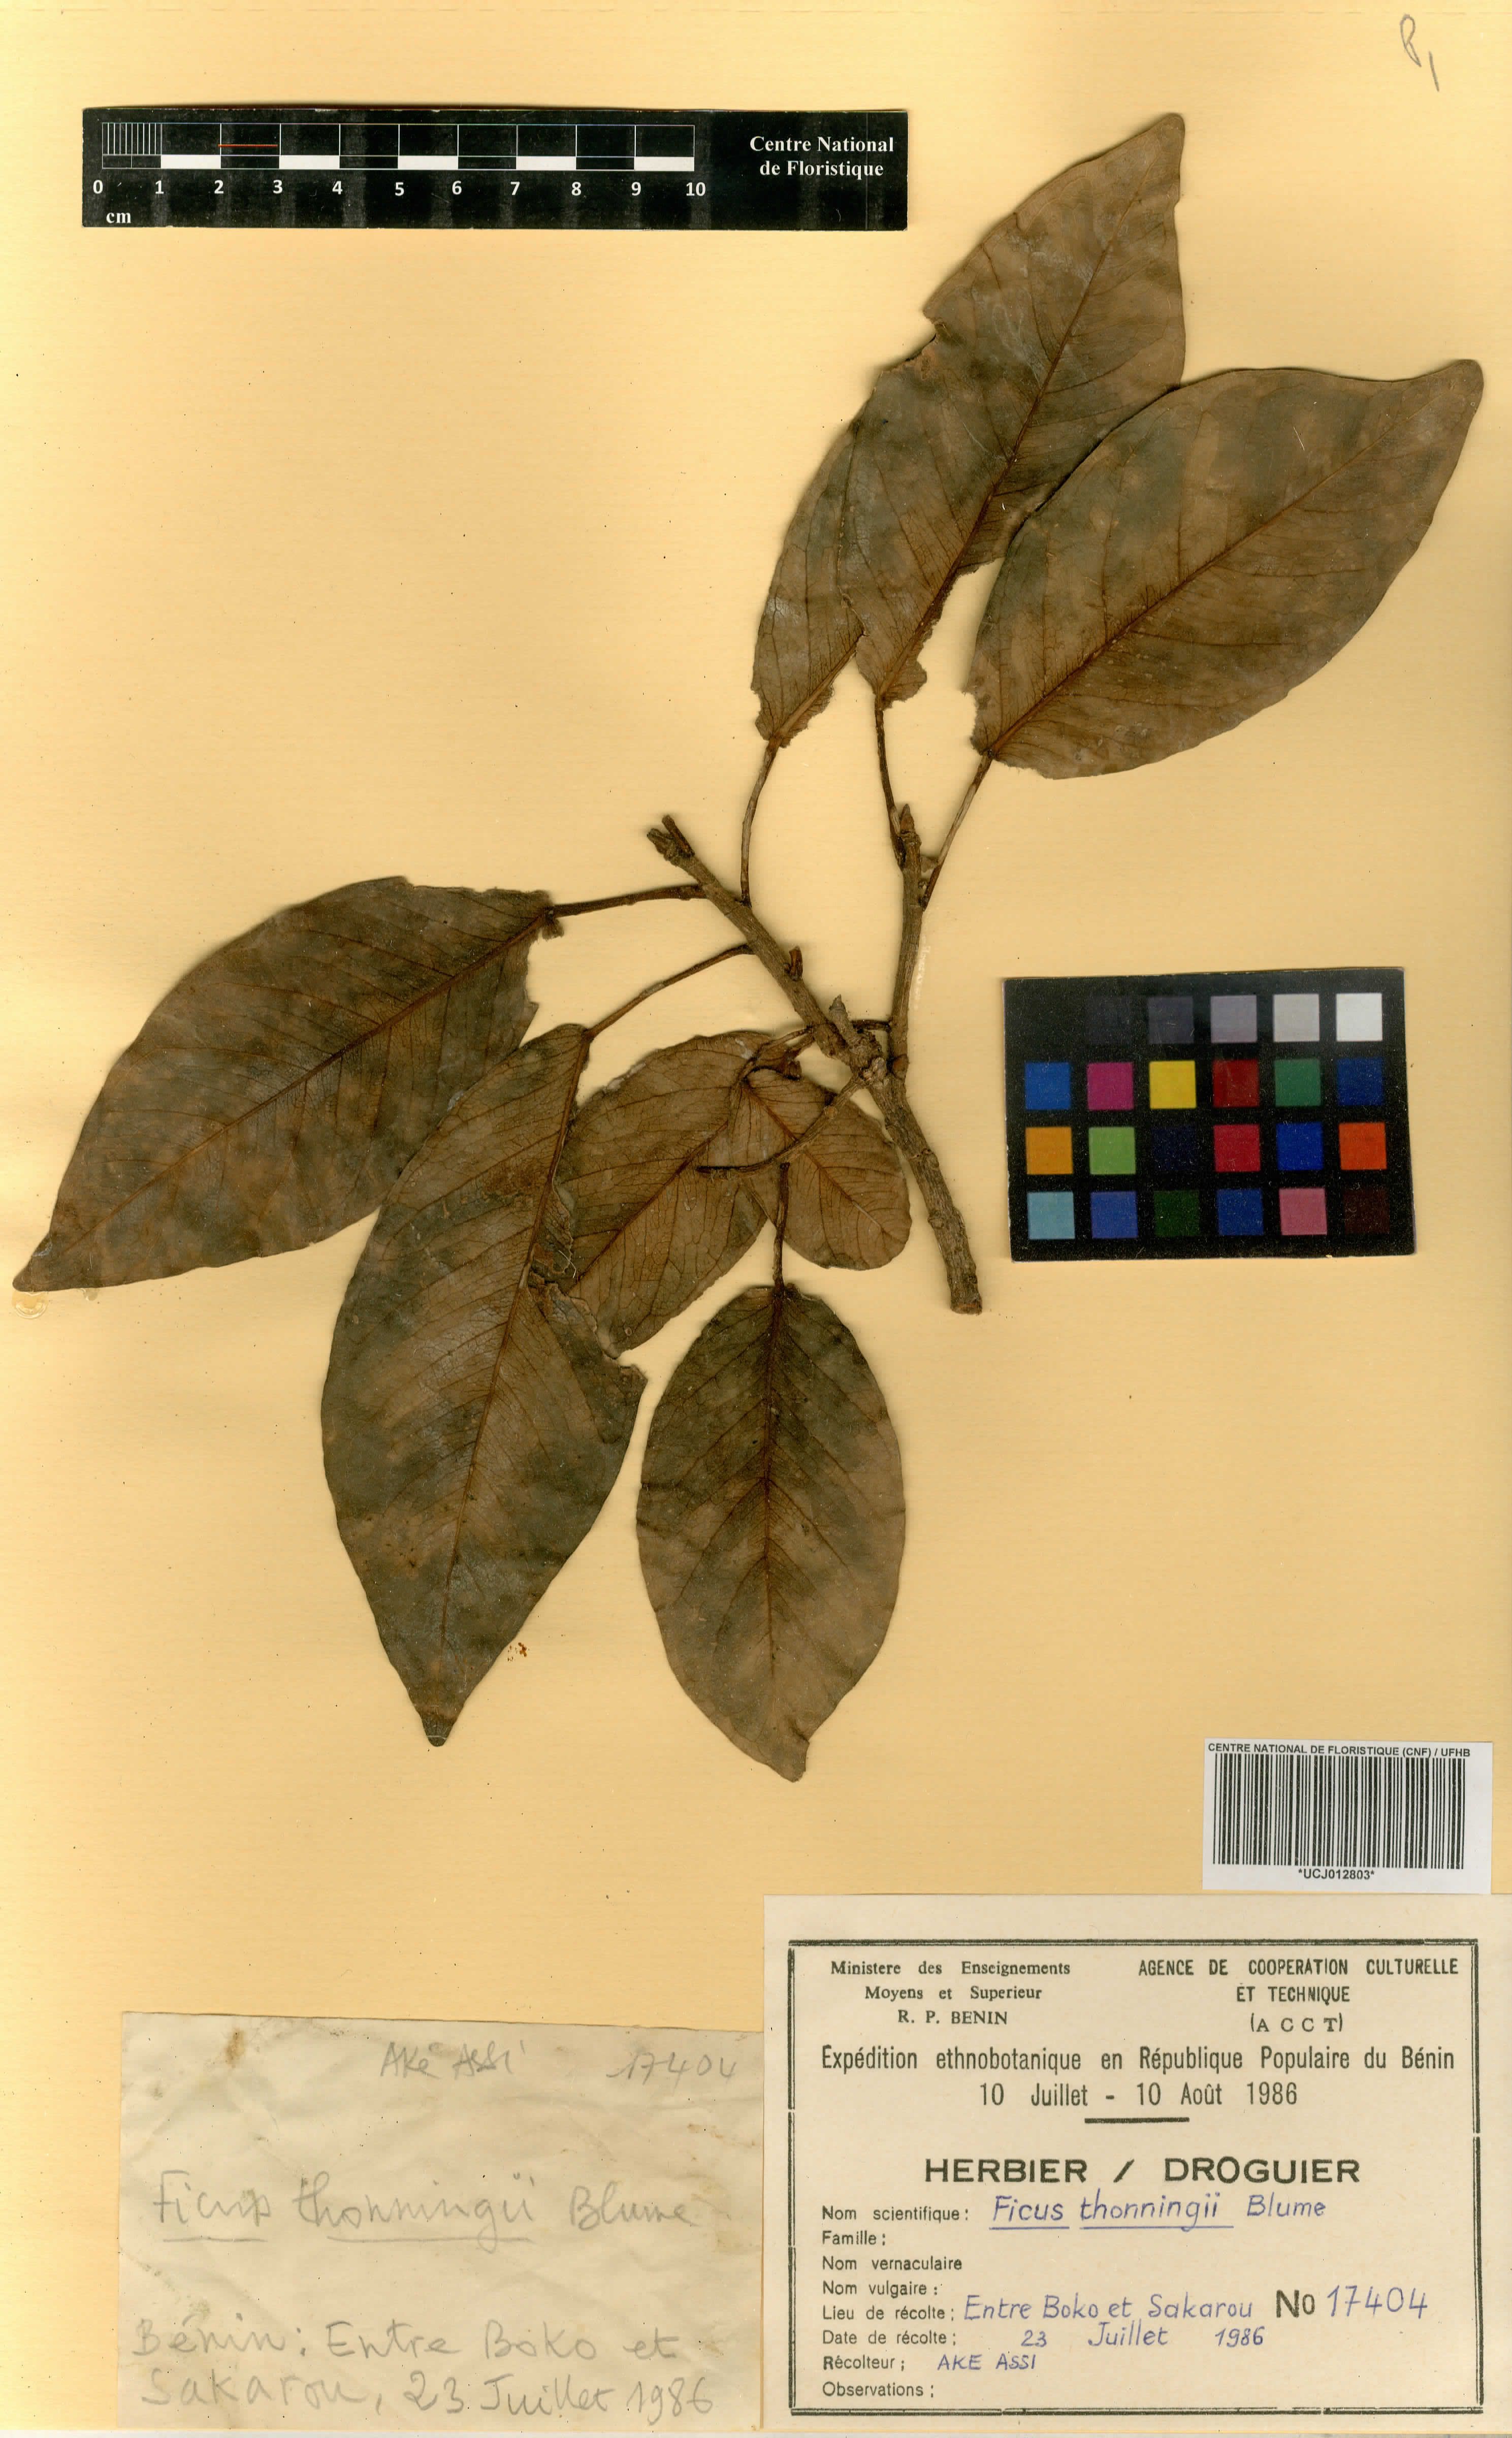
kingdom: Plantae
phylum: Tracheophyta
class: Magnoliopsida
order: Rosales
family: Moraceae
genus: Ficus
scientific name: Ficus thonningii
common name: Fig
